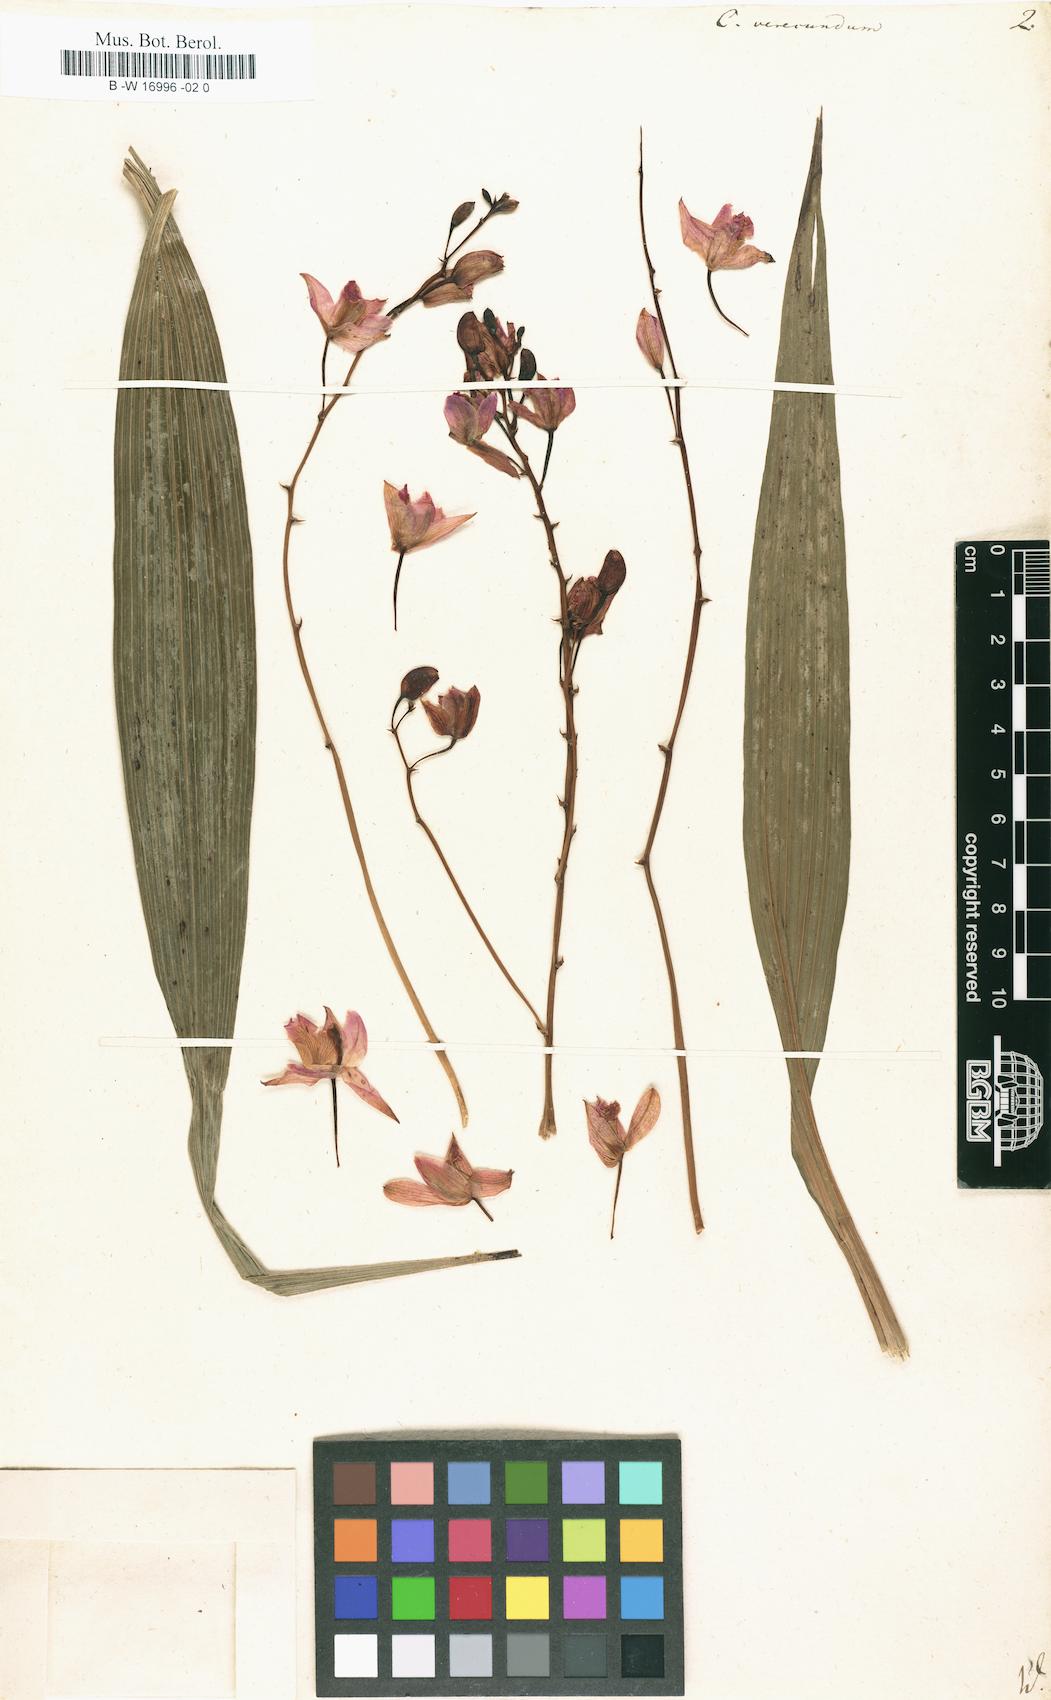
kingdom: Plantae
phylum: Tracheophyta
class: Liliopsida
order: Asparagales
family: Orchidaceae
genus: Bletia
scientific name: Bletia purpurea
